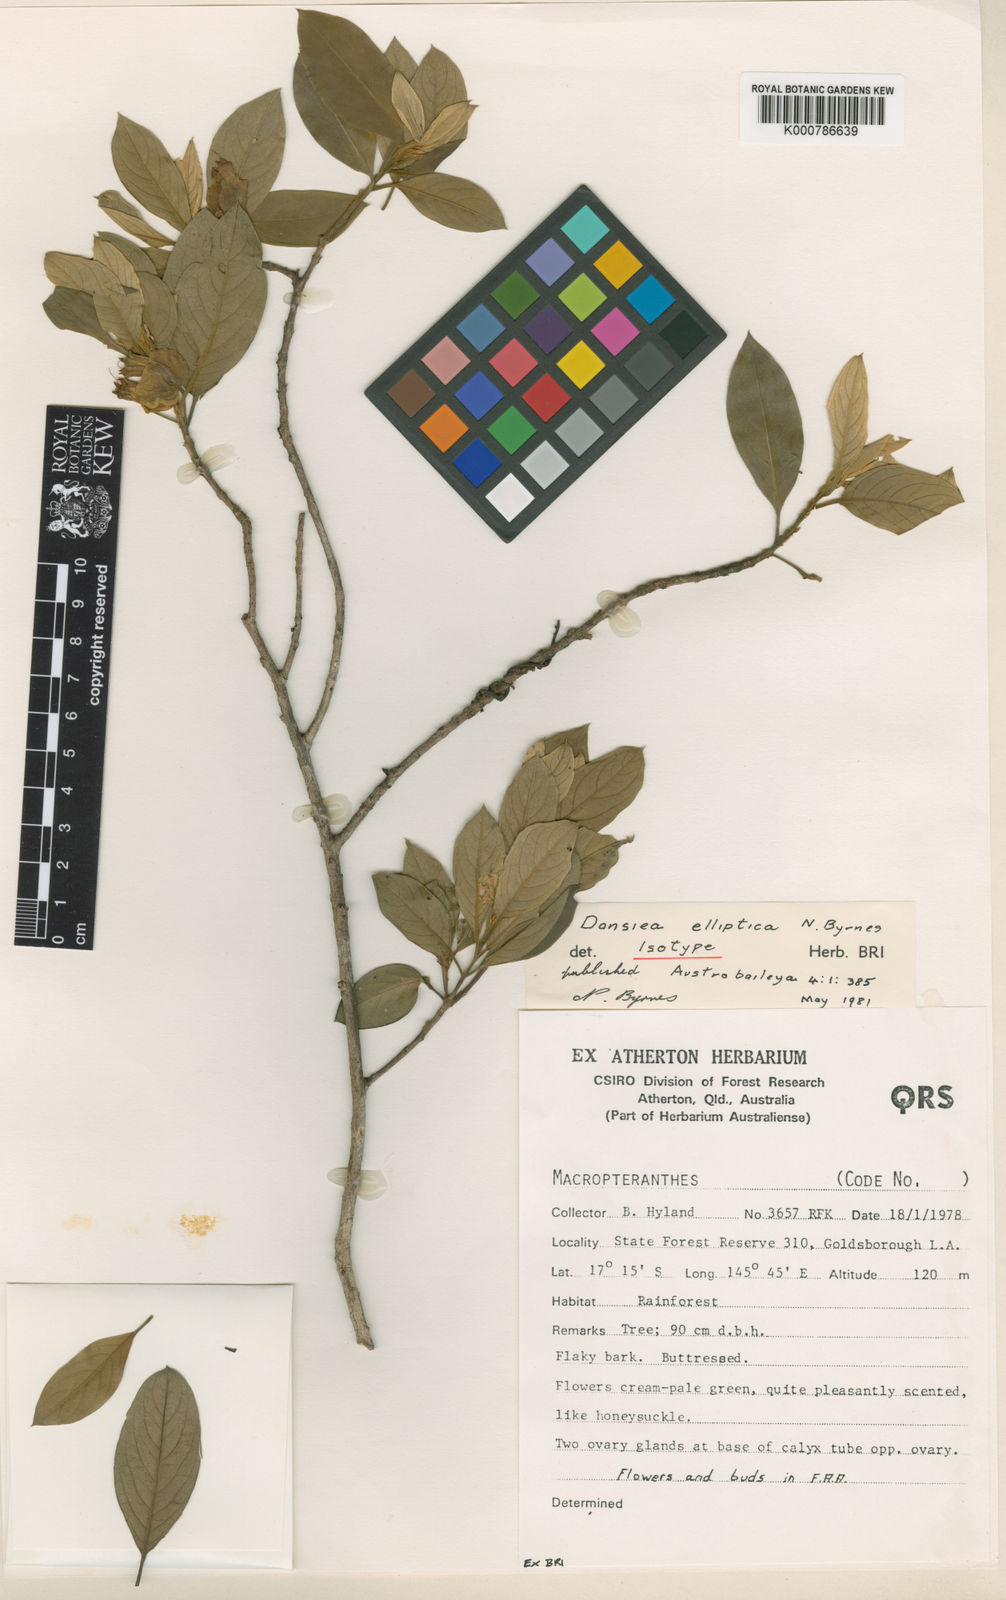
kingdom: Plantae
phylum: Tracheophyta
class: Magnoliopsida
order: Myrtales
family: Combretaceae
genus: Dansiea
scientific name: Dansiea elliptica
